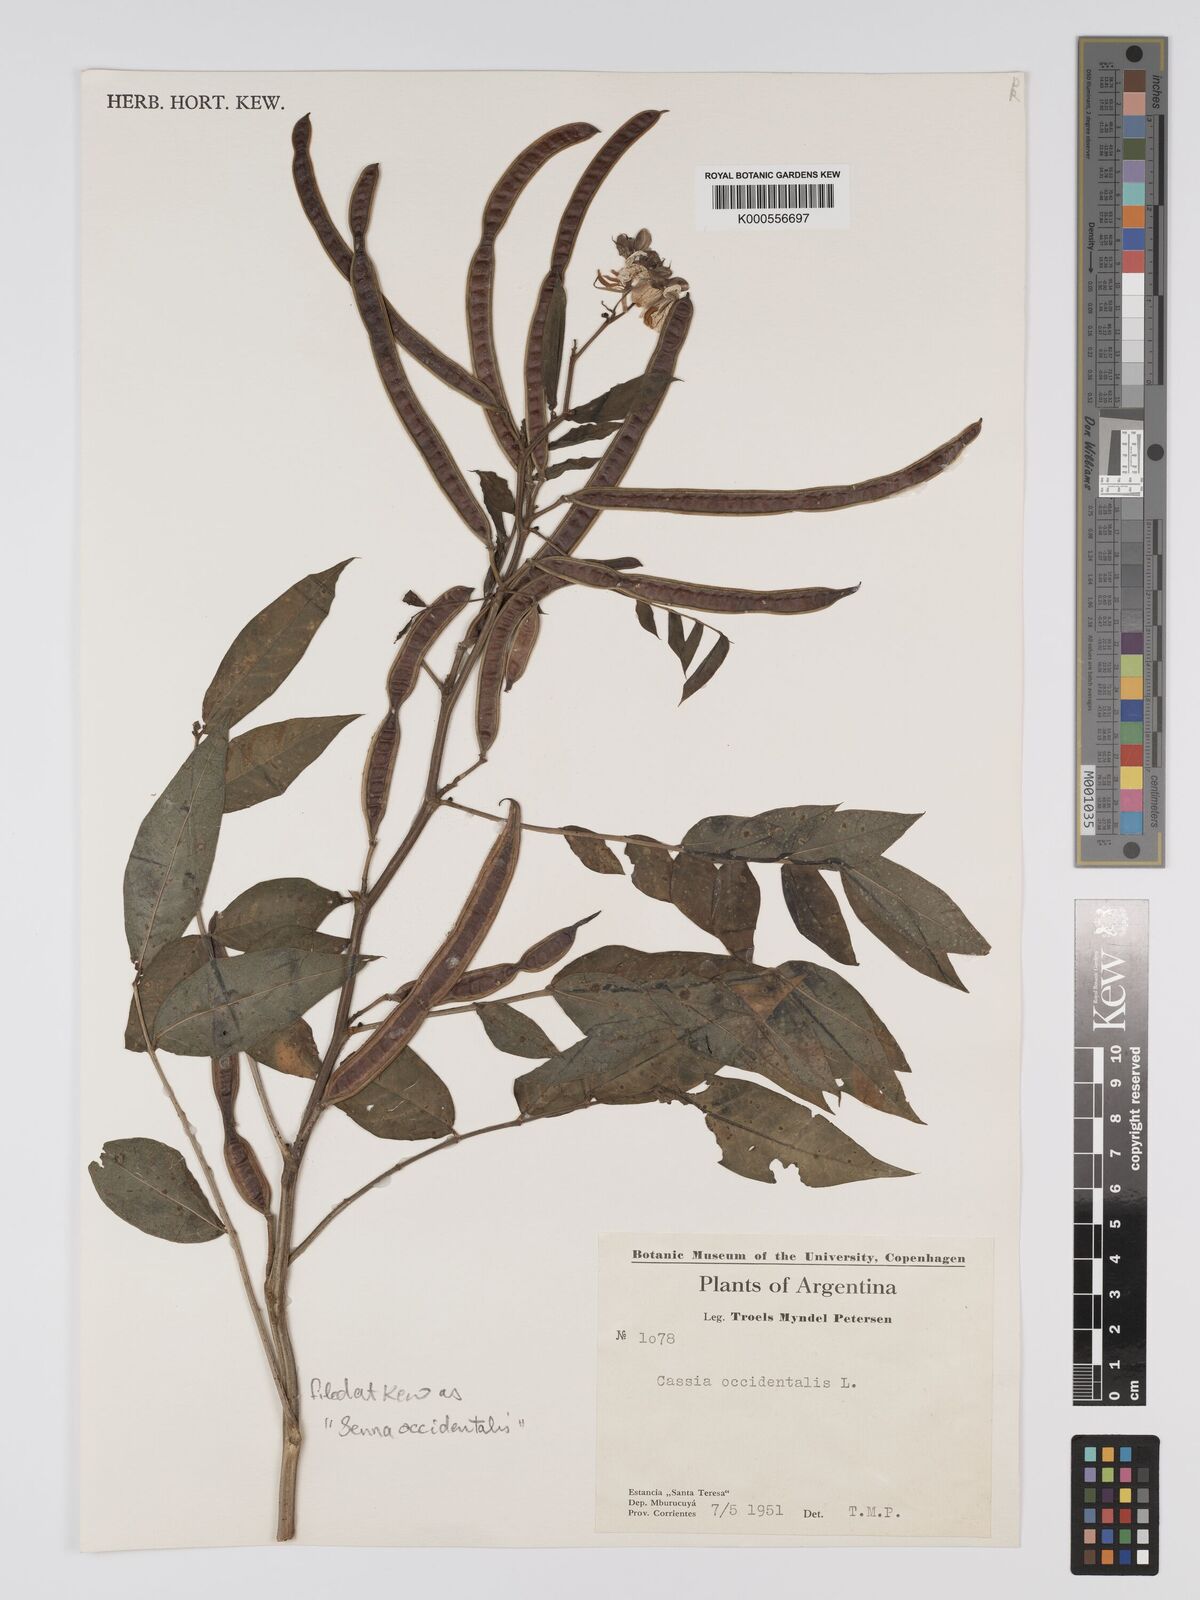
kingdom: Plantae
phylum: Tracheophyta
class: Magnoliopsida
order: Fabales
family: Fabaceae
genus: Senna
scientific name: Senna occidentalis
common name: Septicweed
